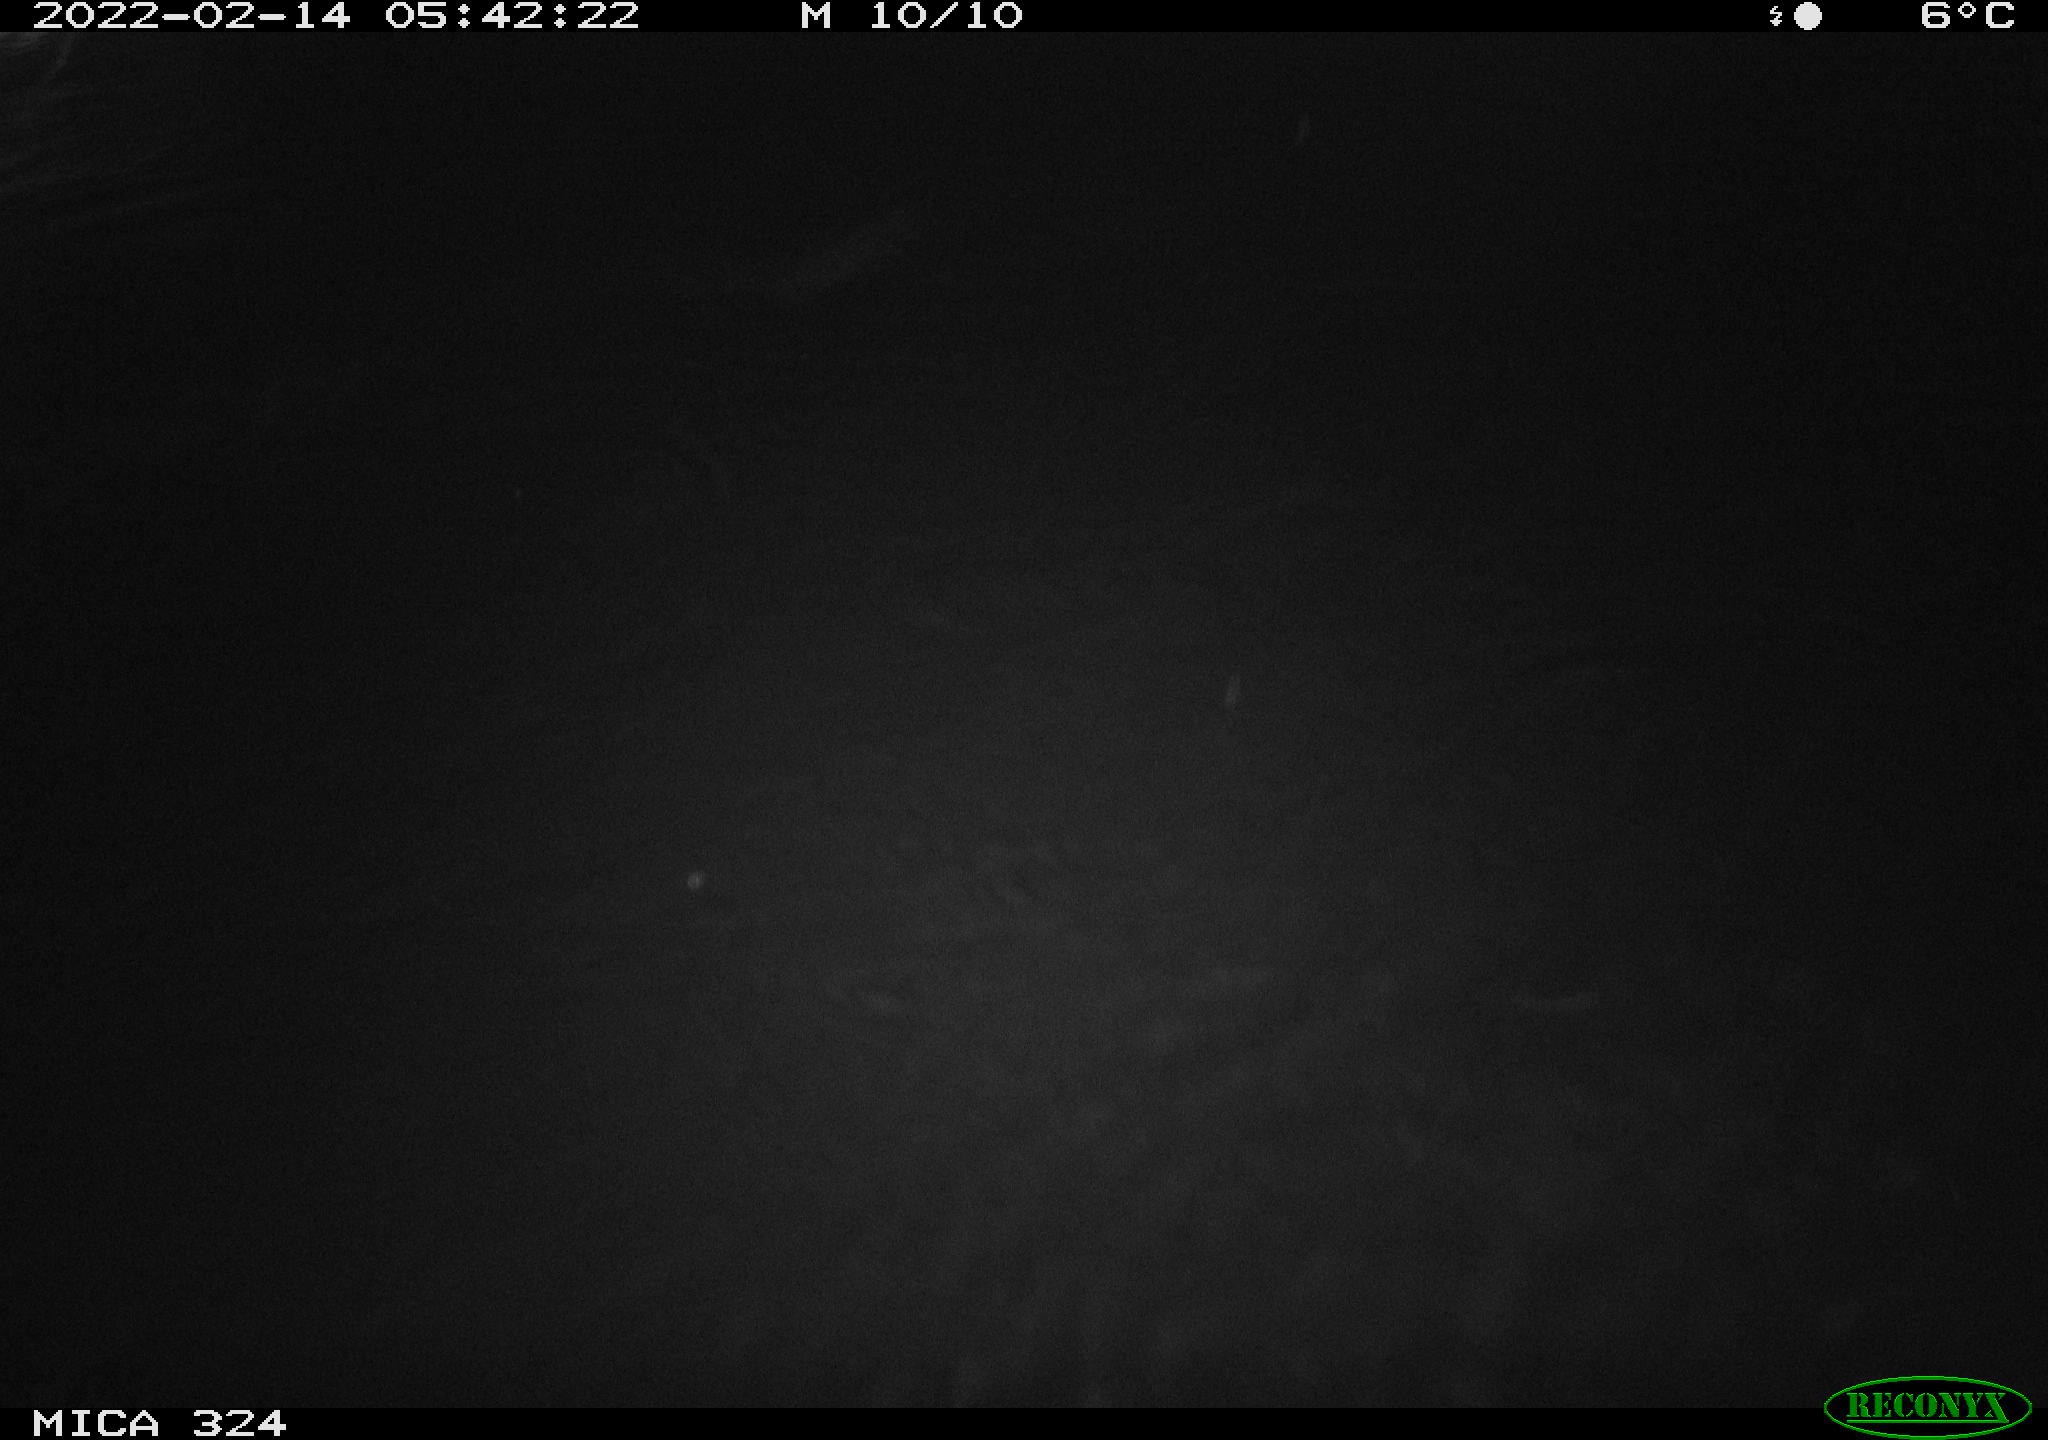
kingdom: Animalia
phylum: Chordata
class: Mammalia
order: Rodentia
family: Cricetidae
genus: Ondatra
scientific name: Ondatra zibethicus
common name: Muskrat
